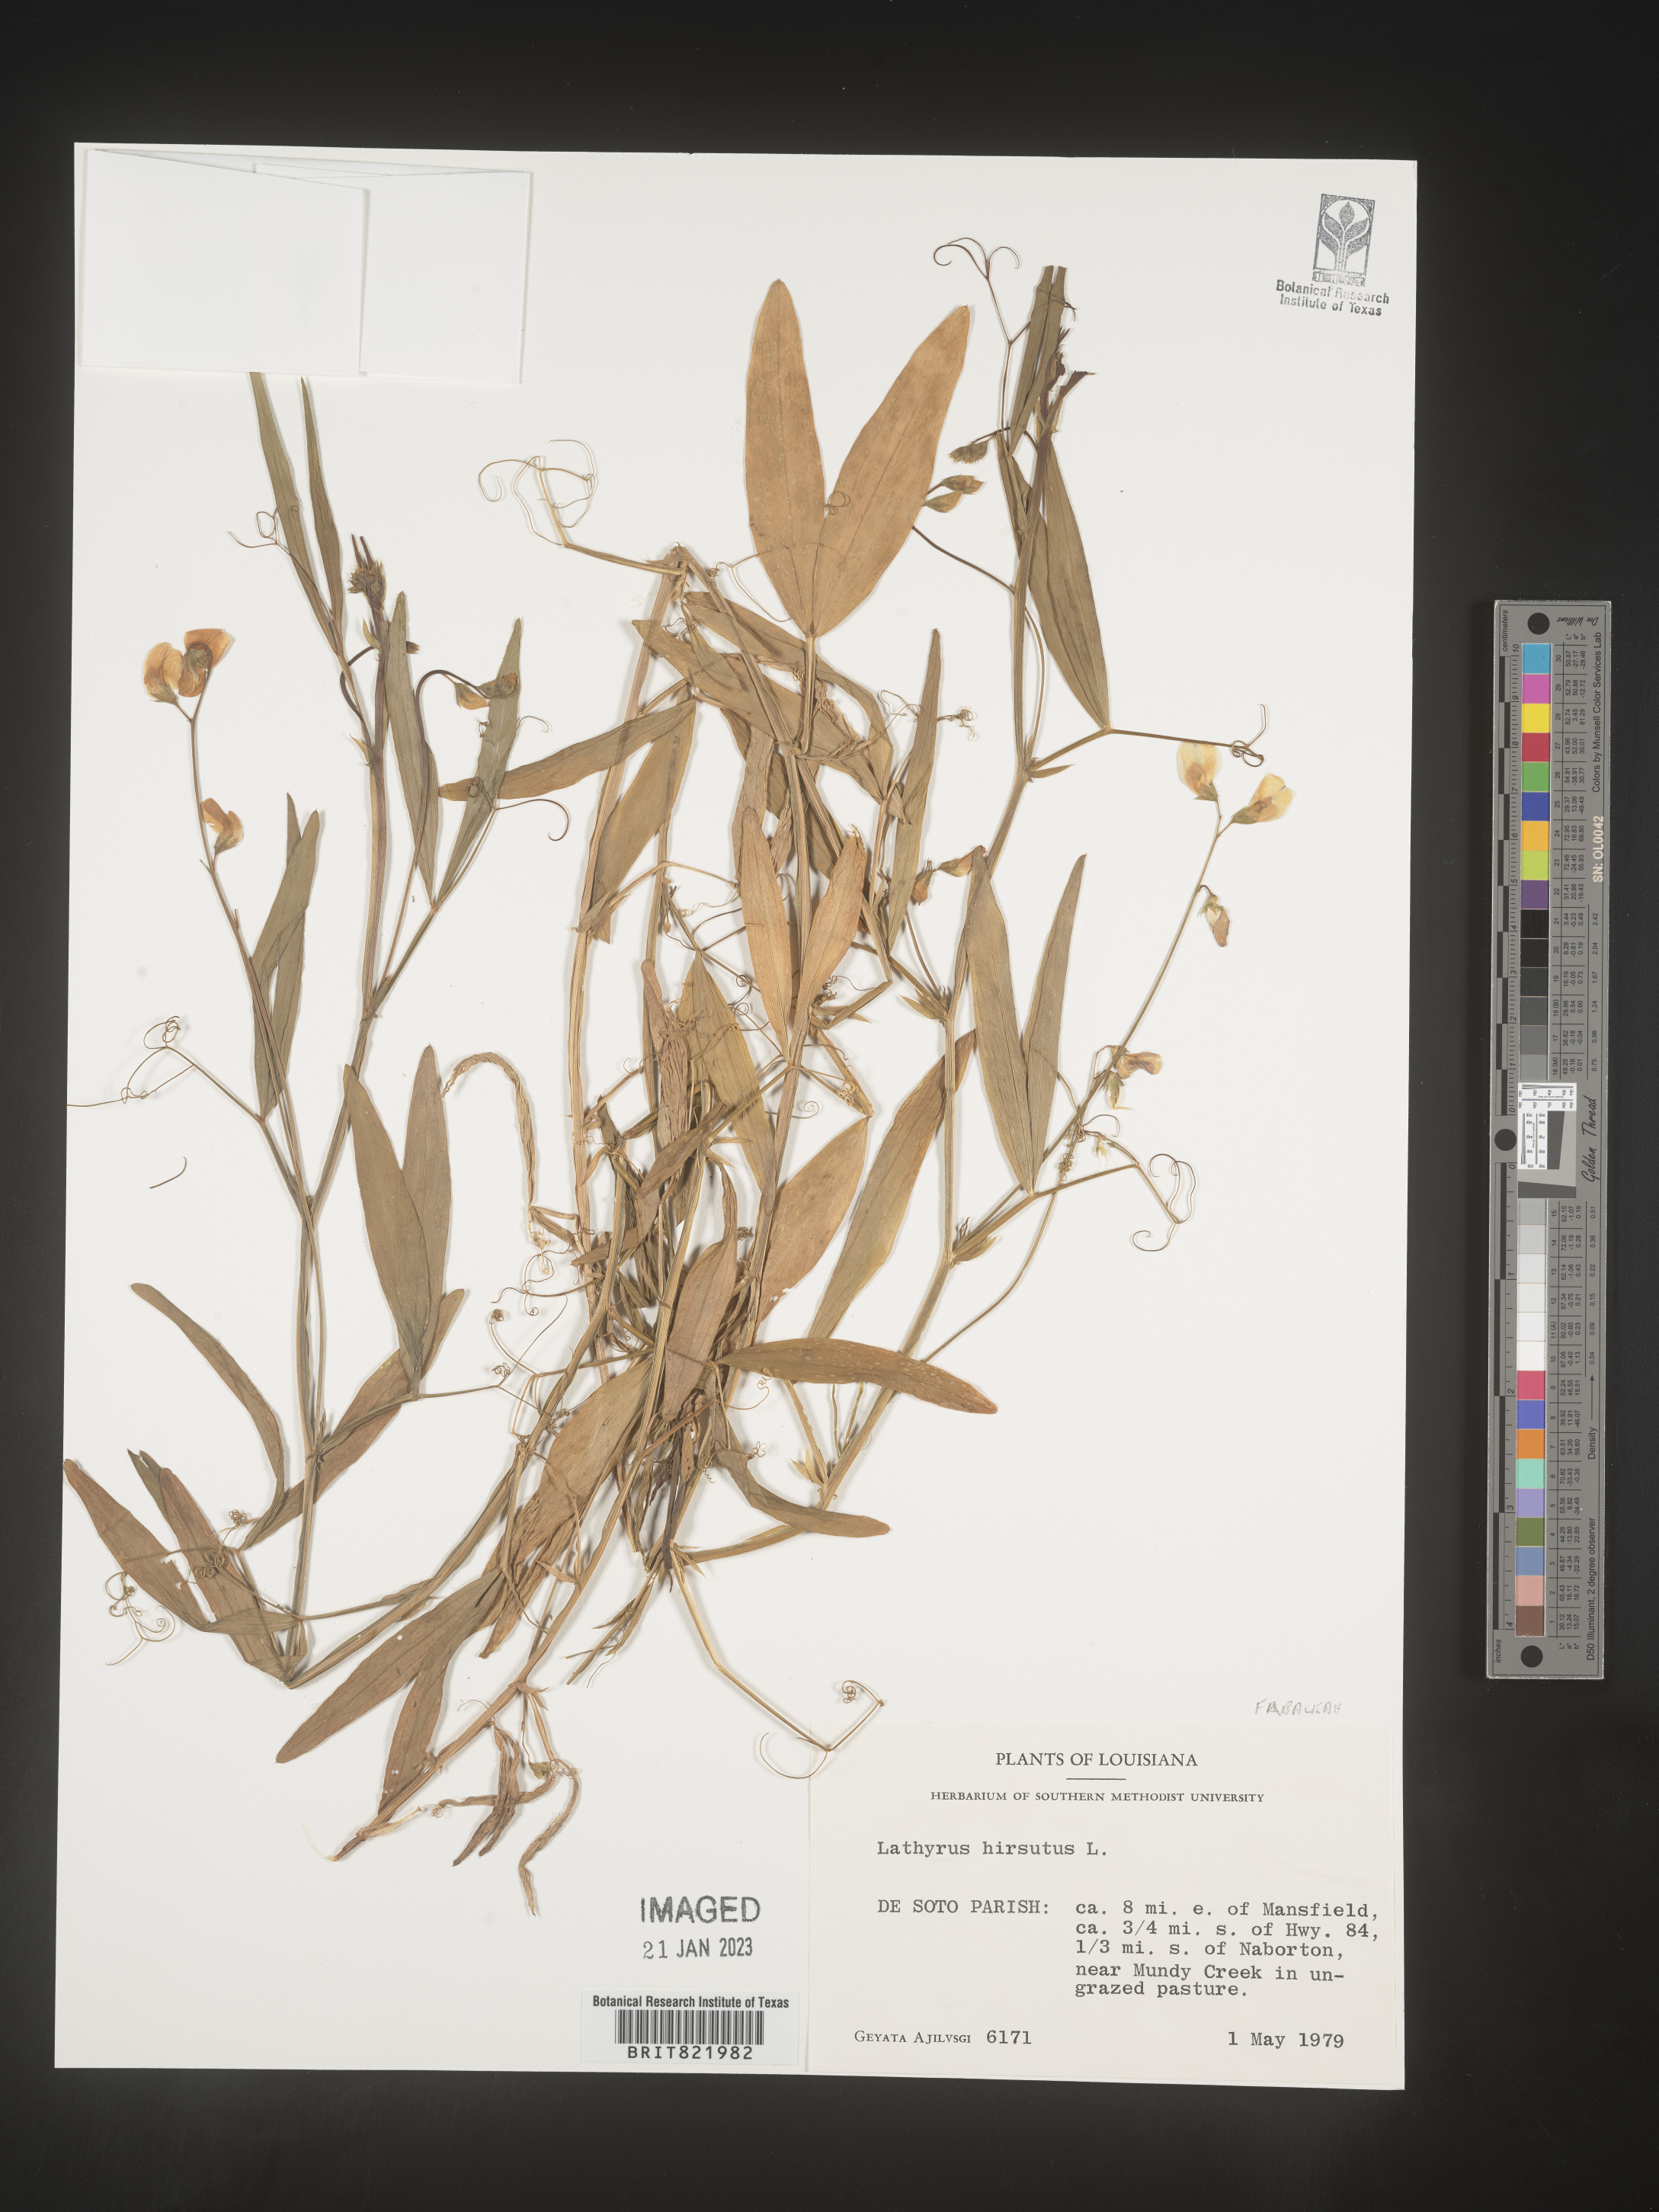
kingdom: Plantae
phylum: Tracheophyta
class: Magnoliopsida
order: Fabales
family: Fabaceae
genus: Lathyrus
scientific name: Lathyrus hirsutus
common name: Hairy vetchling
